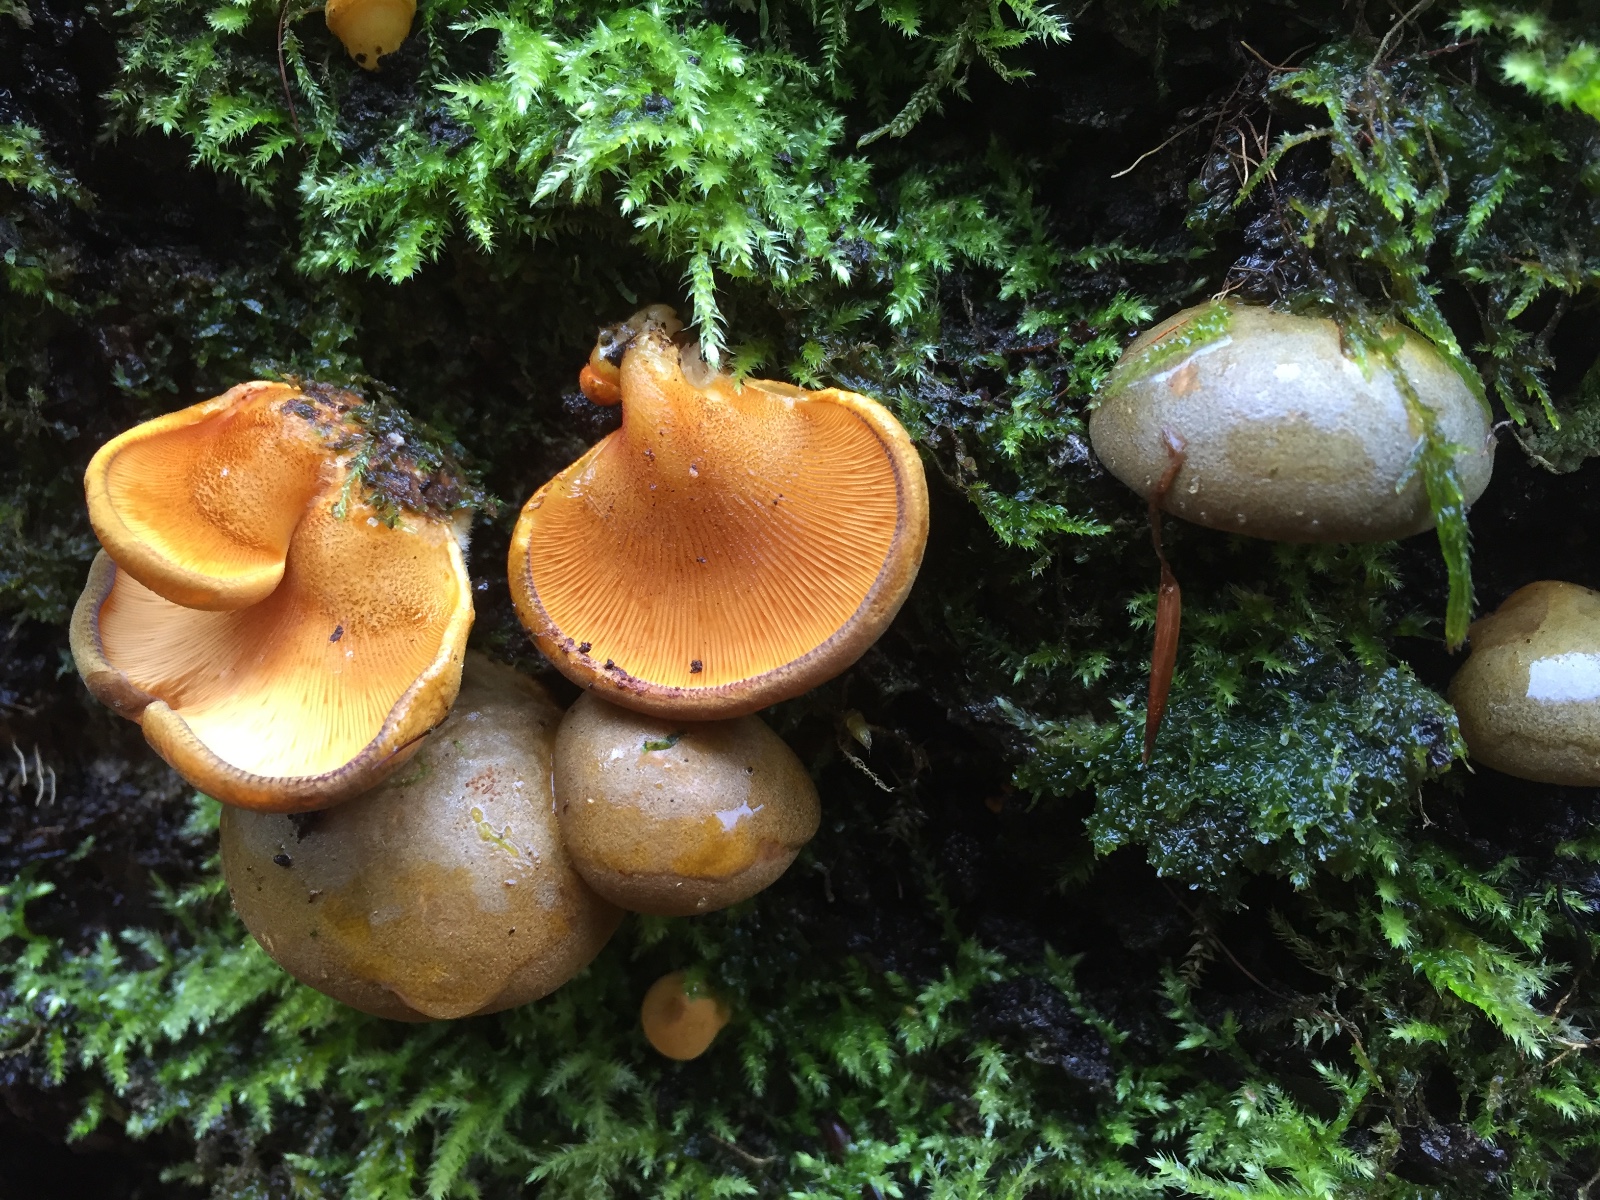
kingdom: Fungi
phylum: Basidiomycota
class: Agaricomycetes
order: Agaricales
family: Sarcomyxaceae
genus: Sarcomyxa
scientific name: Sarcomyxa serotina
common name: gummihat
